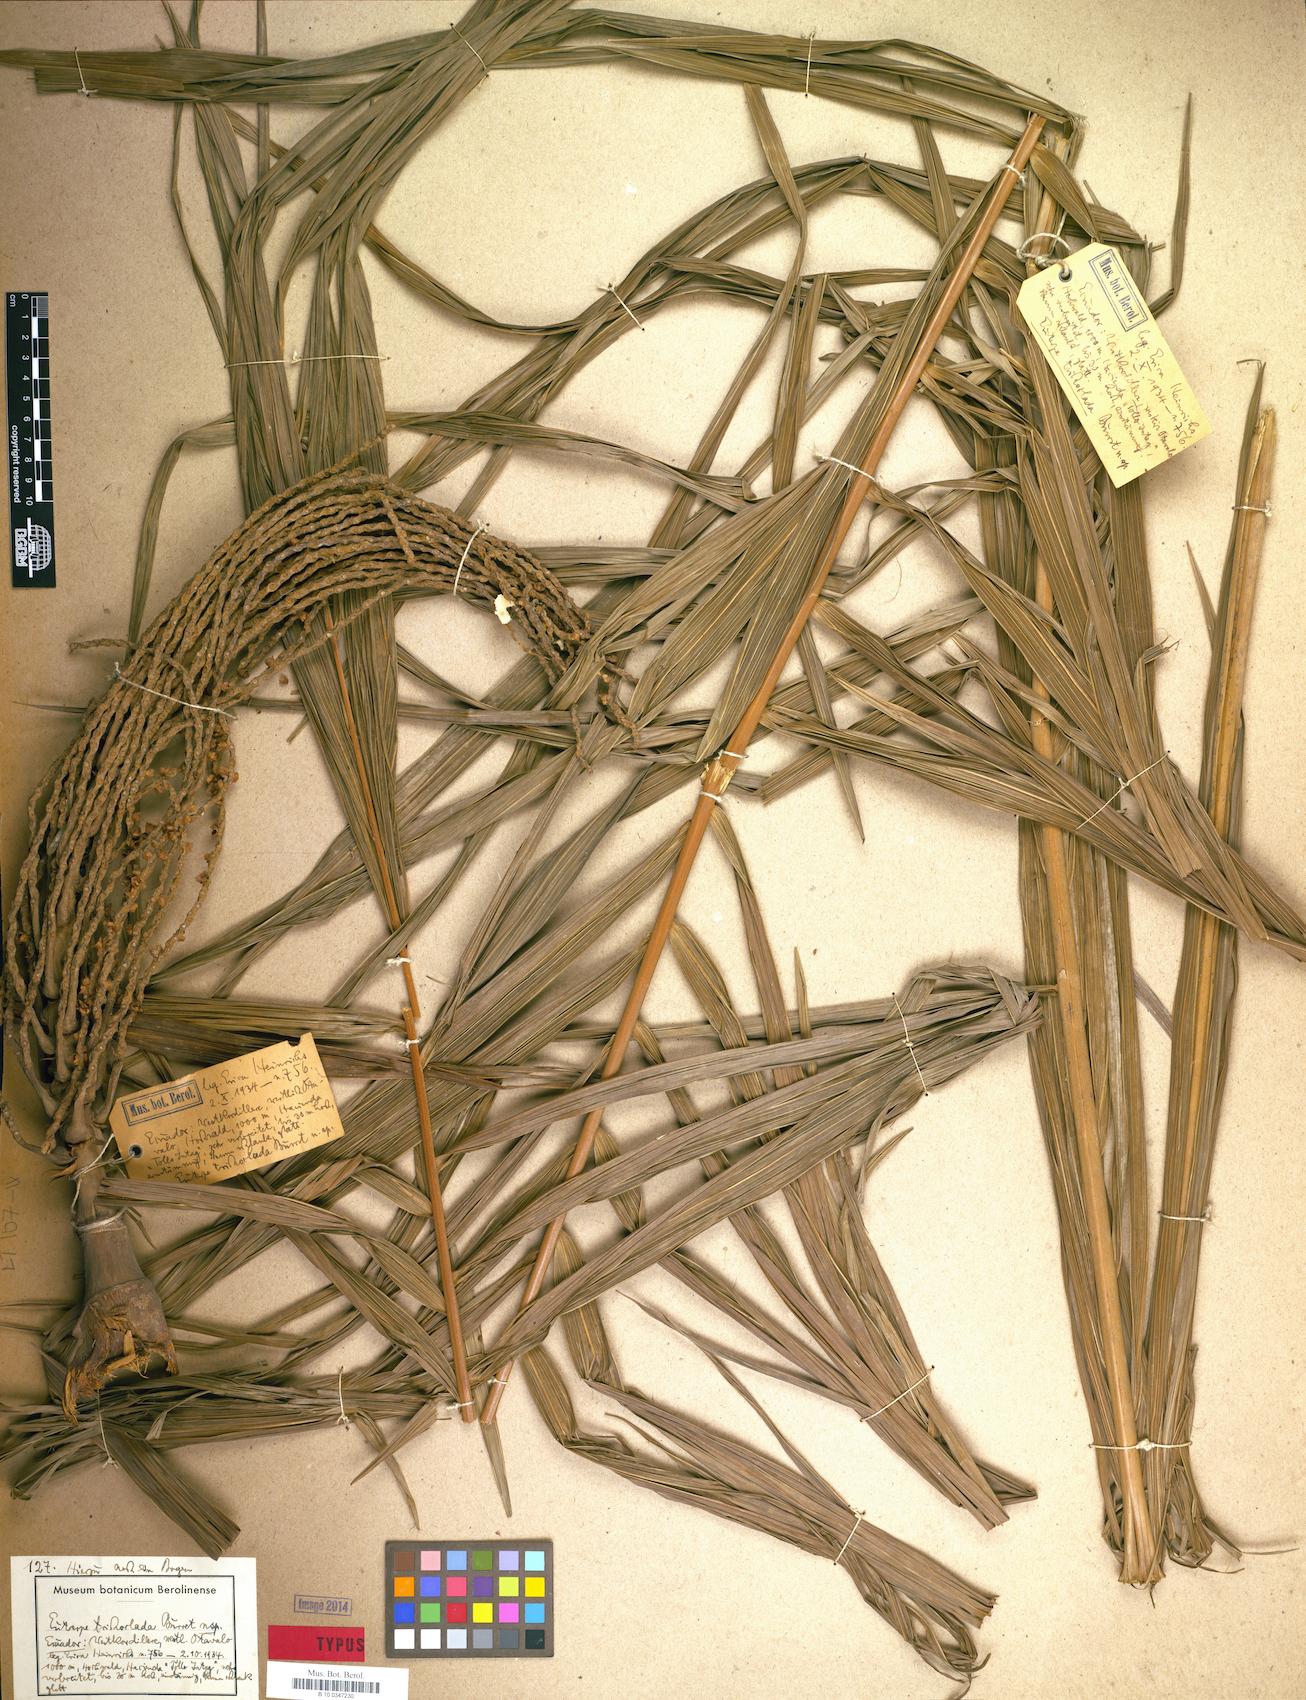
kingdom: Plantae
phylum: Tracheophyta
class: Liliopsida
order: Arecales
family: Arecaceae
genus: Prestoea
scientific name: Prestoea acuminata
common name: Sierran palm
